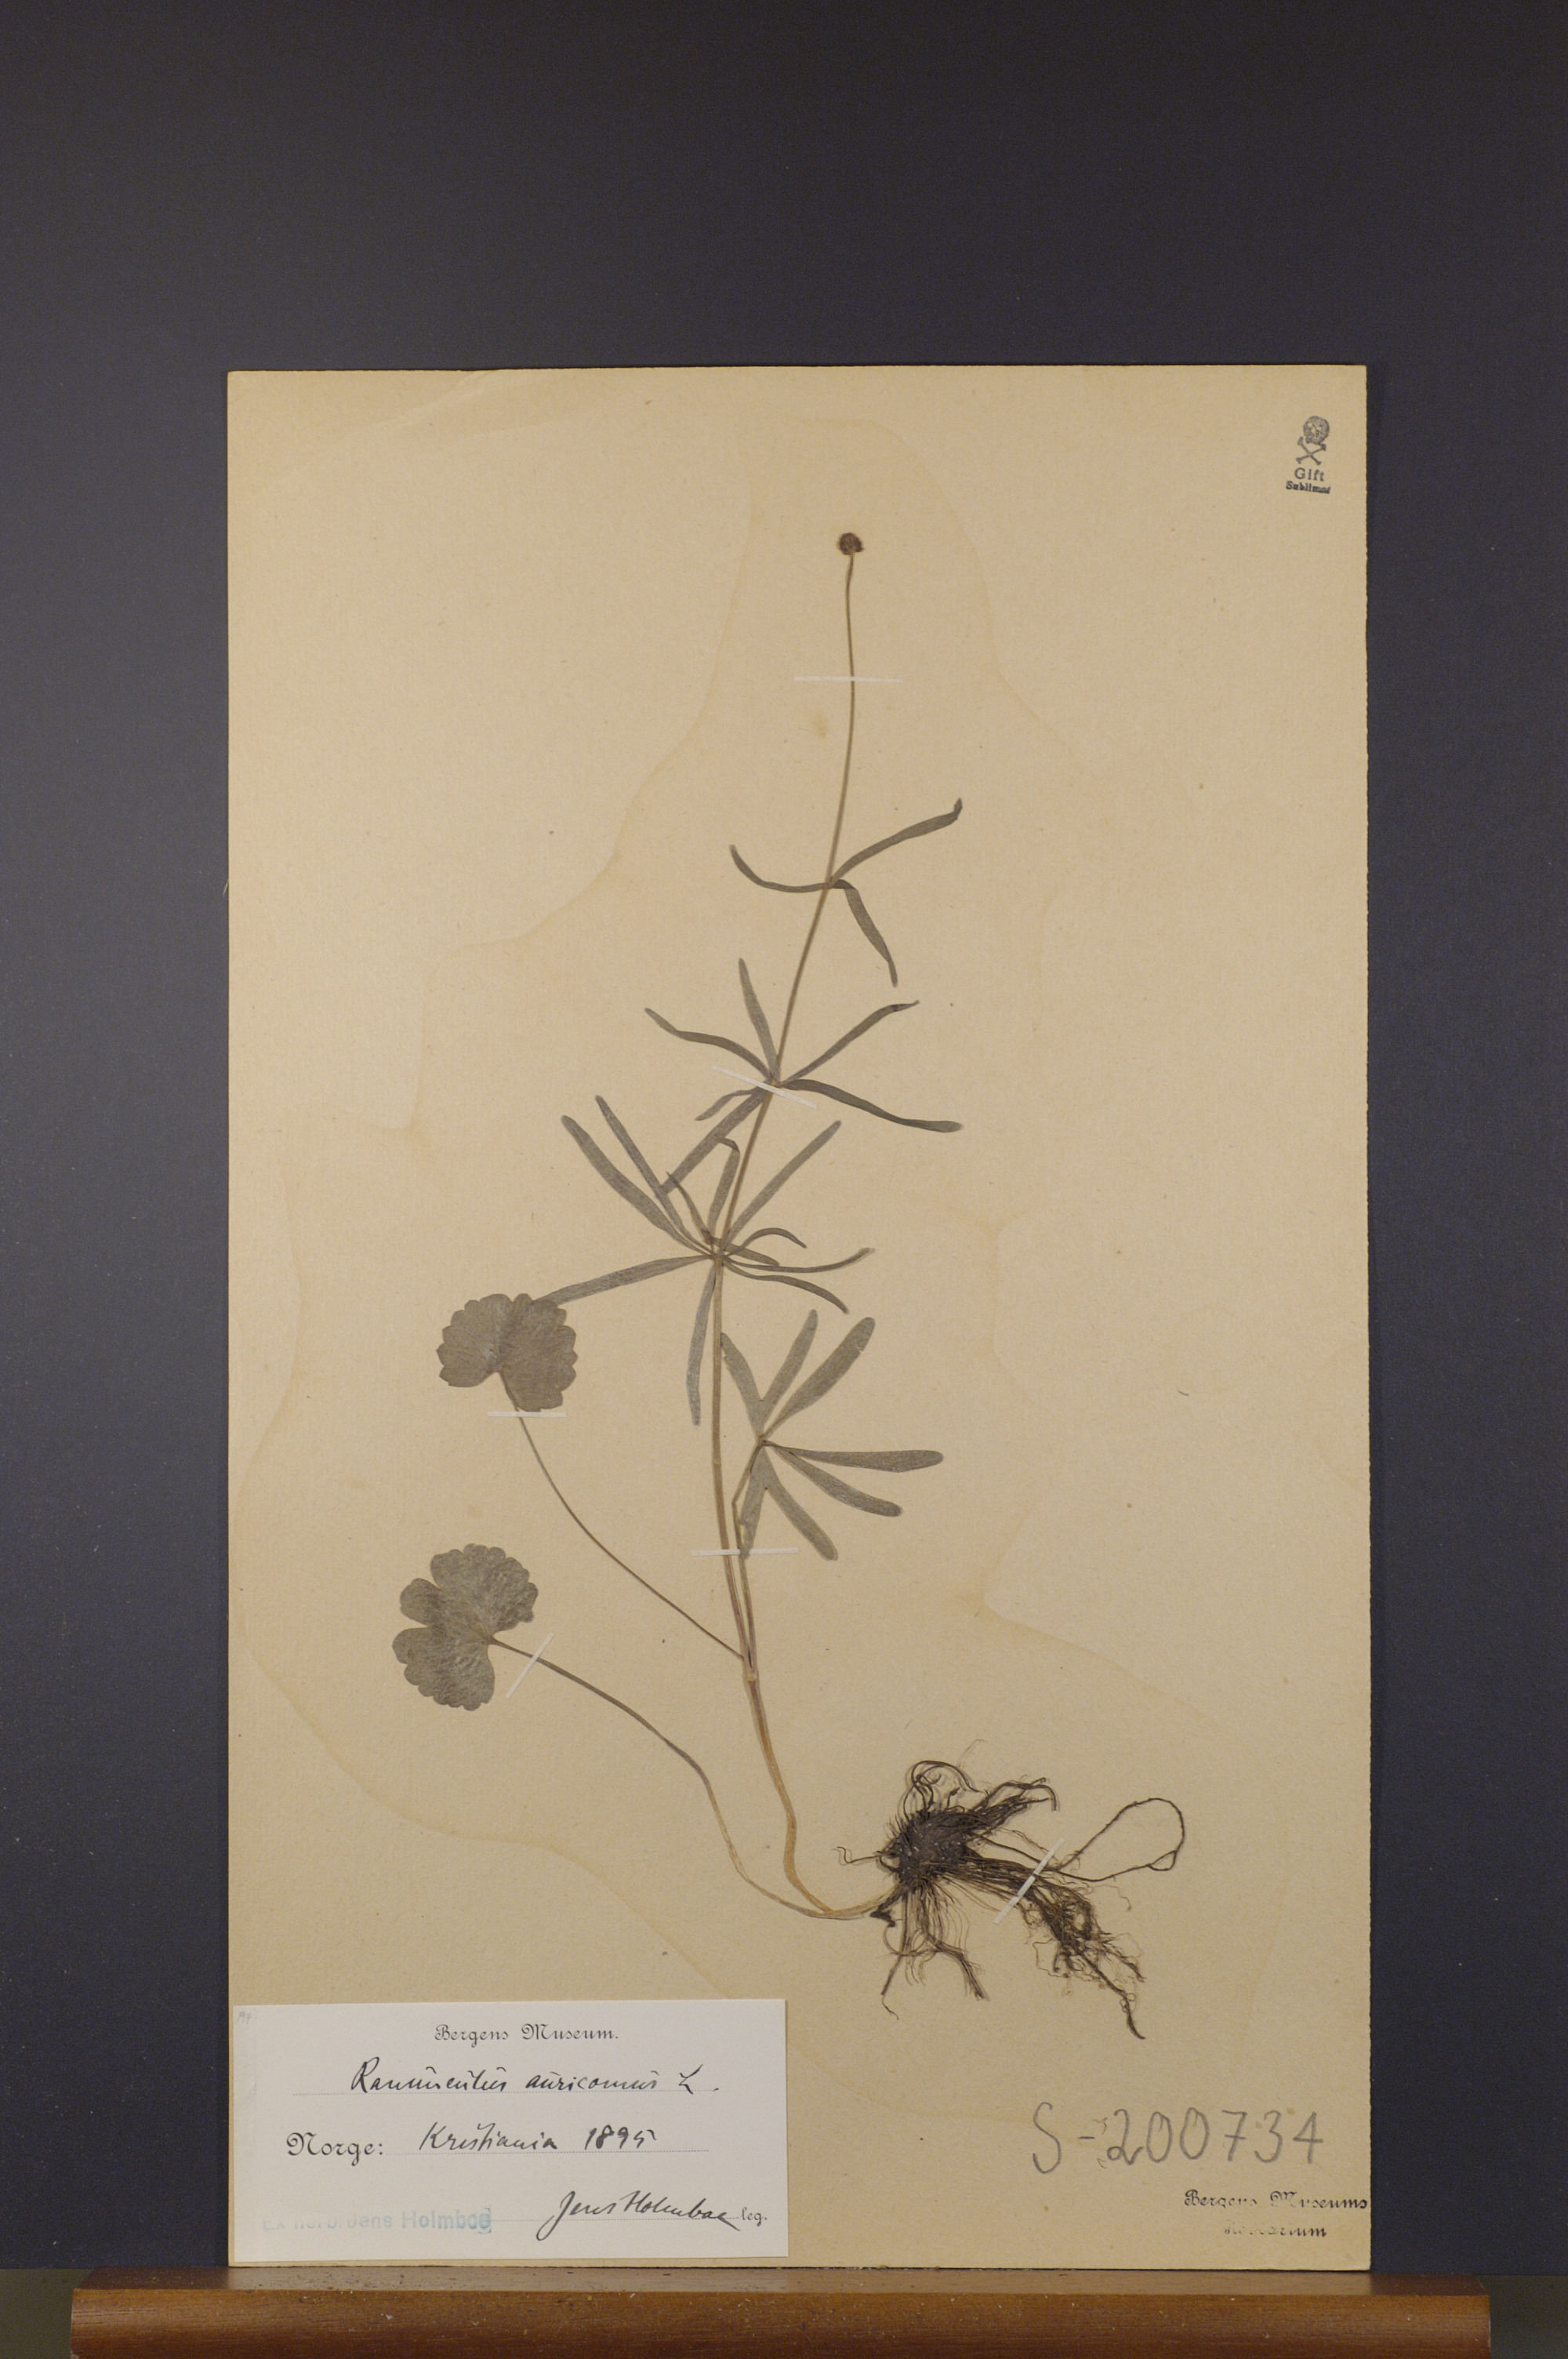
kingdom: Plantae
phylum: Tracheophyta
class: Magnoliopsida
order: Ranunculales
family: Ranunculaceae
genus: Ranunculus
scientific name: Ranunculus auricomus
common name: Goldilocks buttercup
